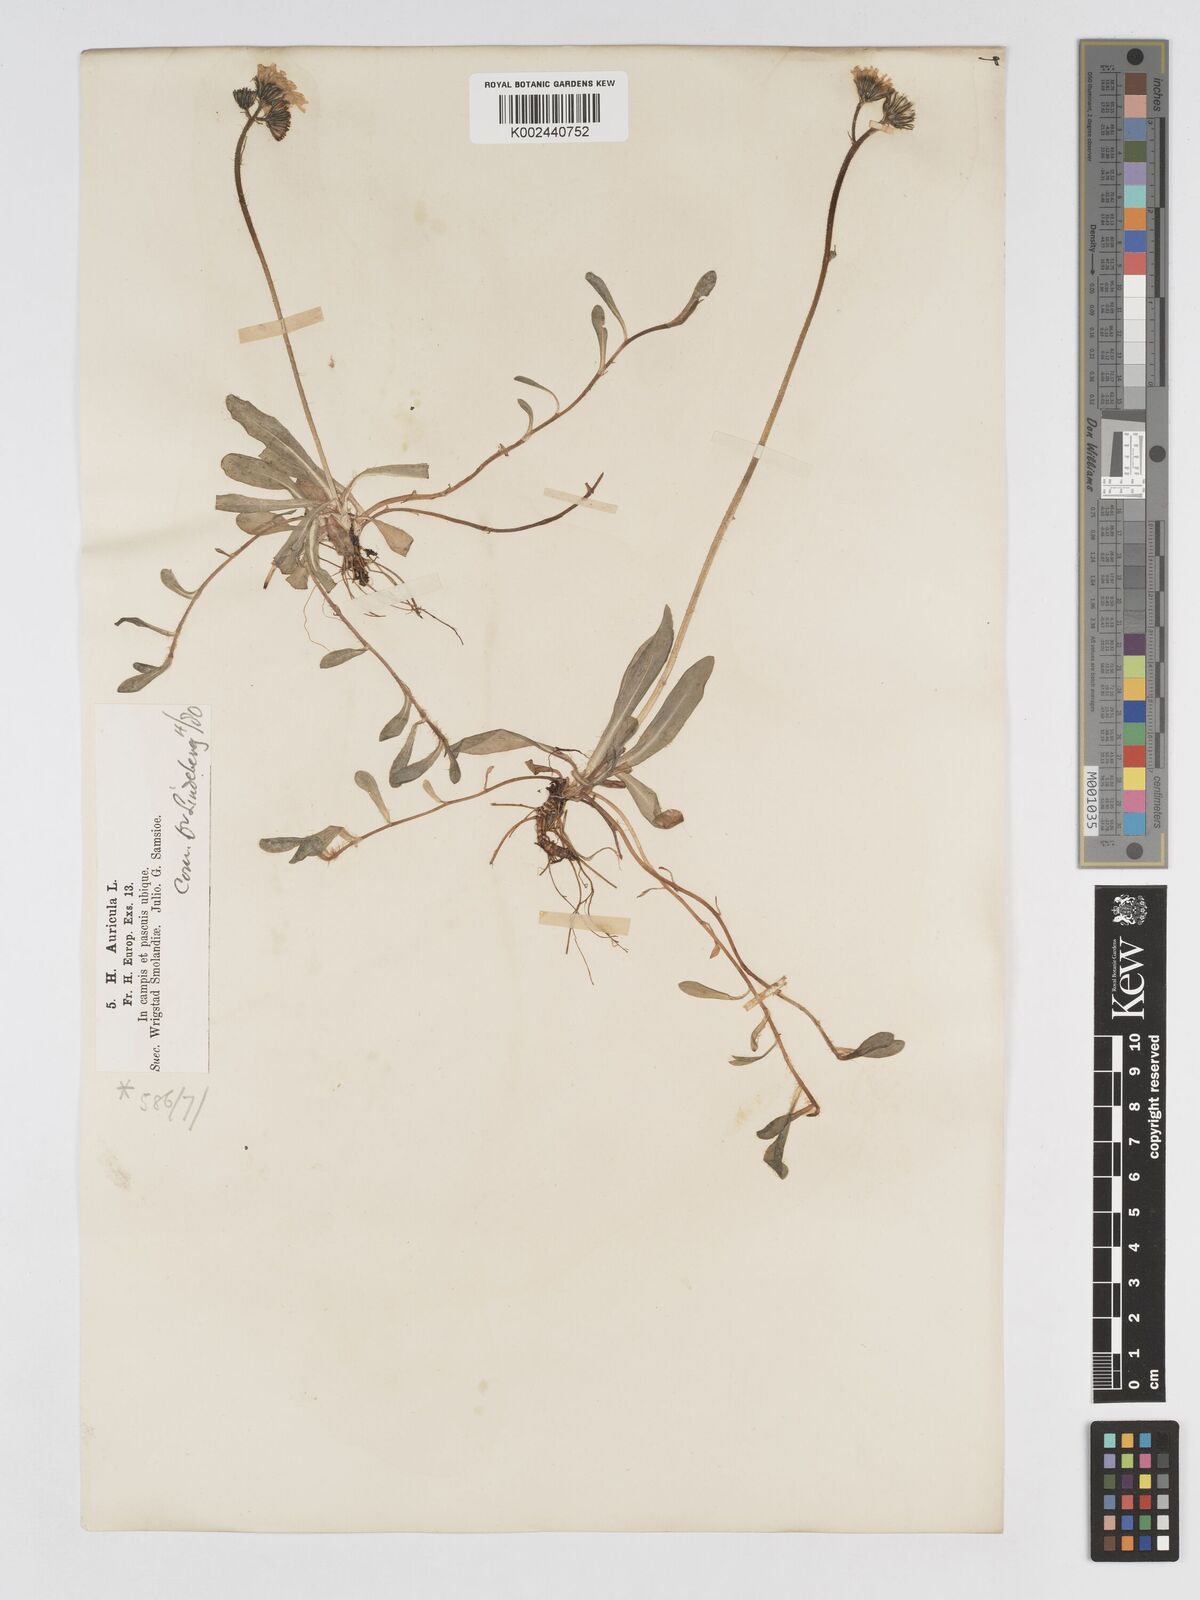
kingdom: Plantae
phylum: Tracheophyta
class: Magnoliopsida
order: Asterales
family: Asteraceae
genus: Pilosella
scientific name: Pilosella floribunda
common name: Glaucous hawkweed
